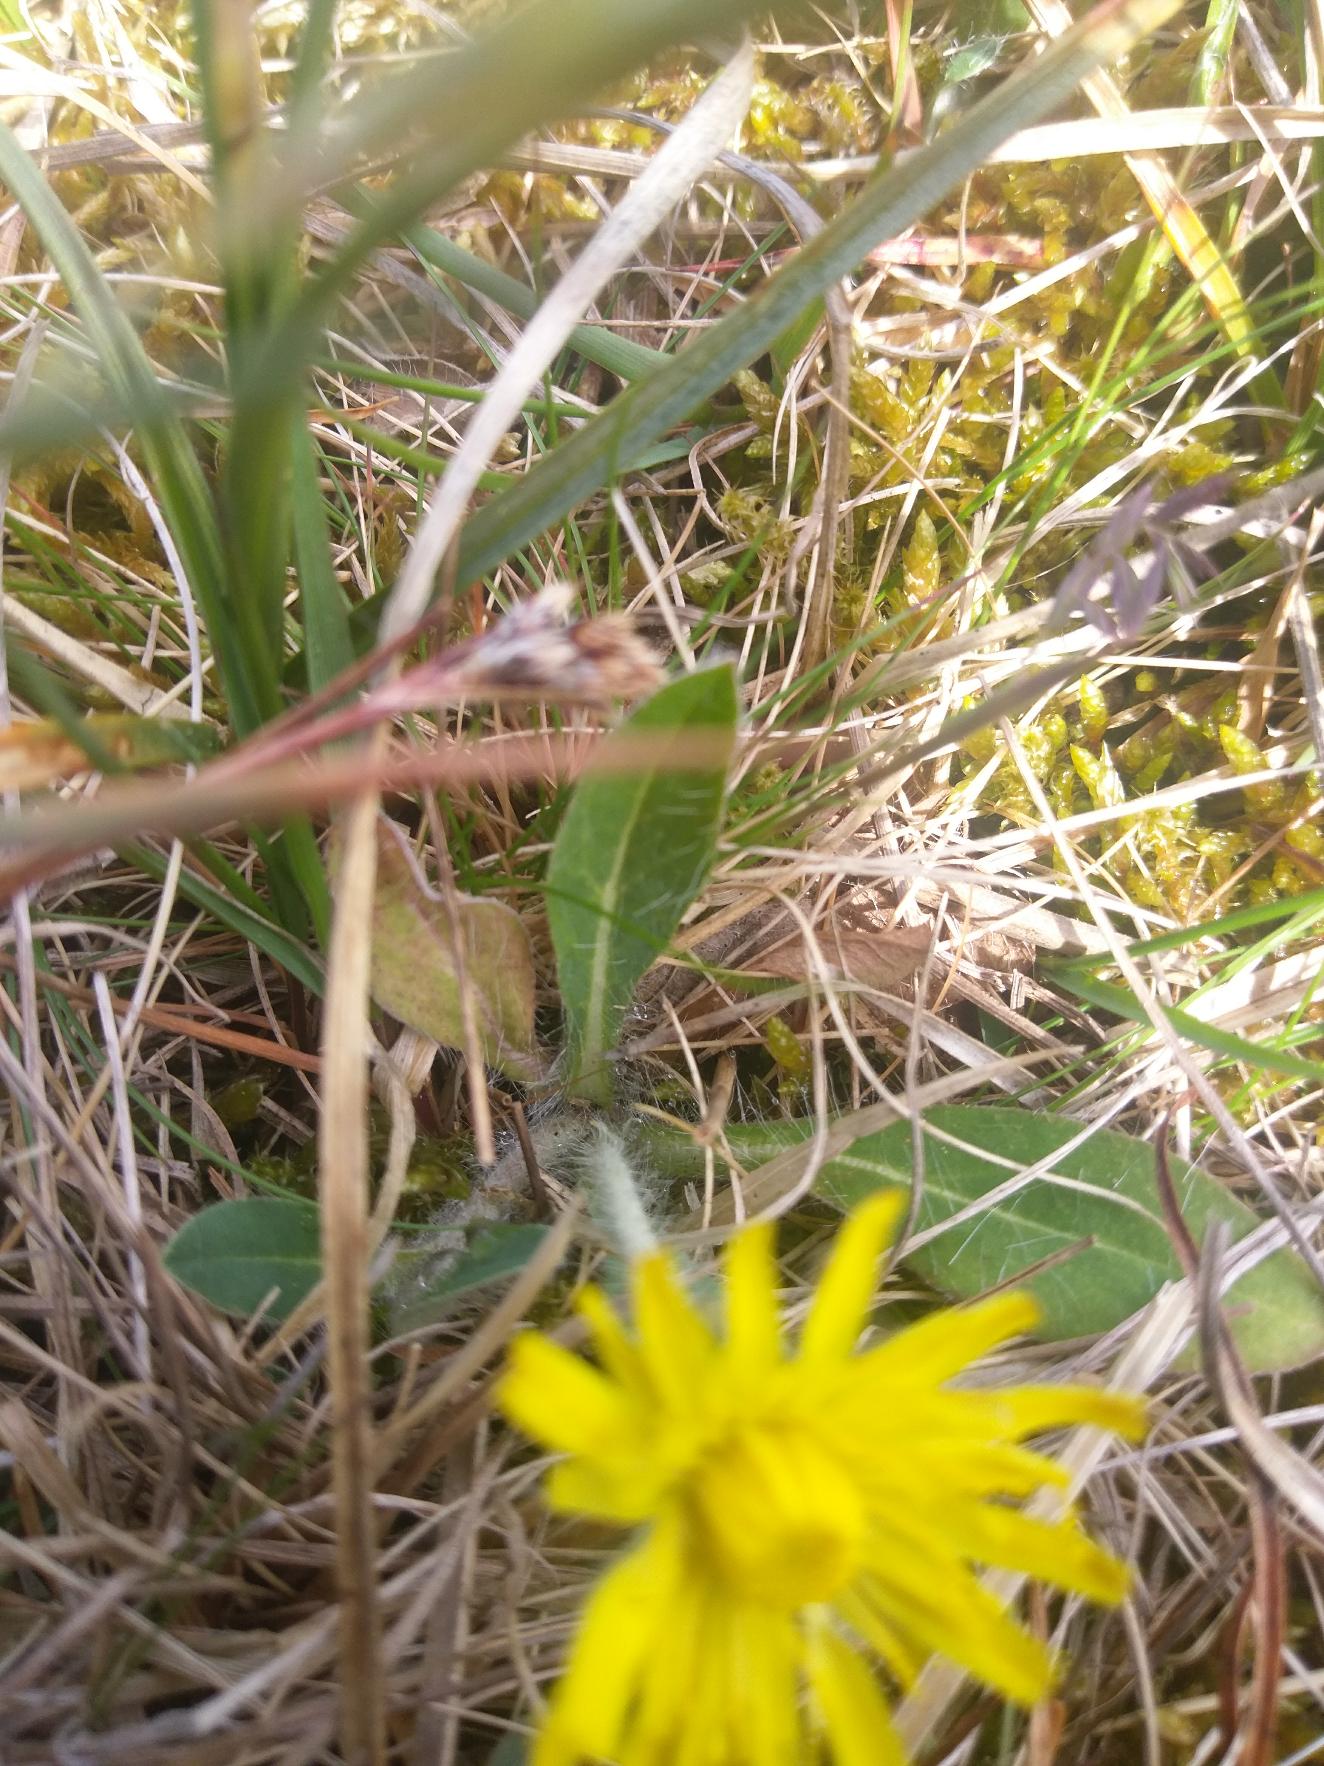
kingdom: Plantae
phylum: Tracheophyta
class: Magnoliopsida
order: Asterales
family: Asteraceae
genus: Pilosella
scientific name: Pilosella officinarum
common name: Håret høgeurt
